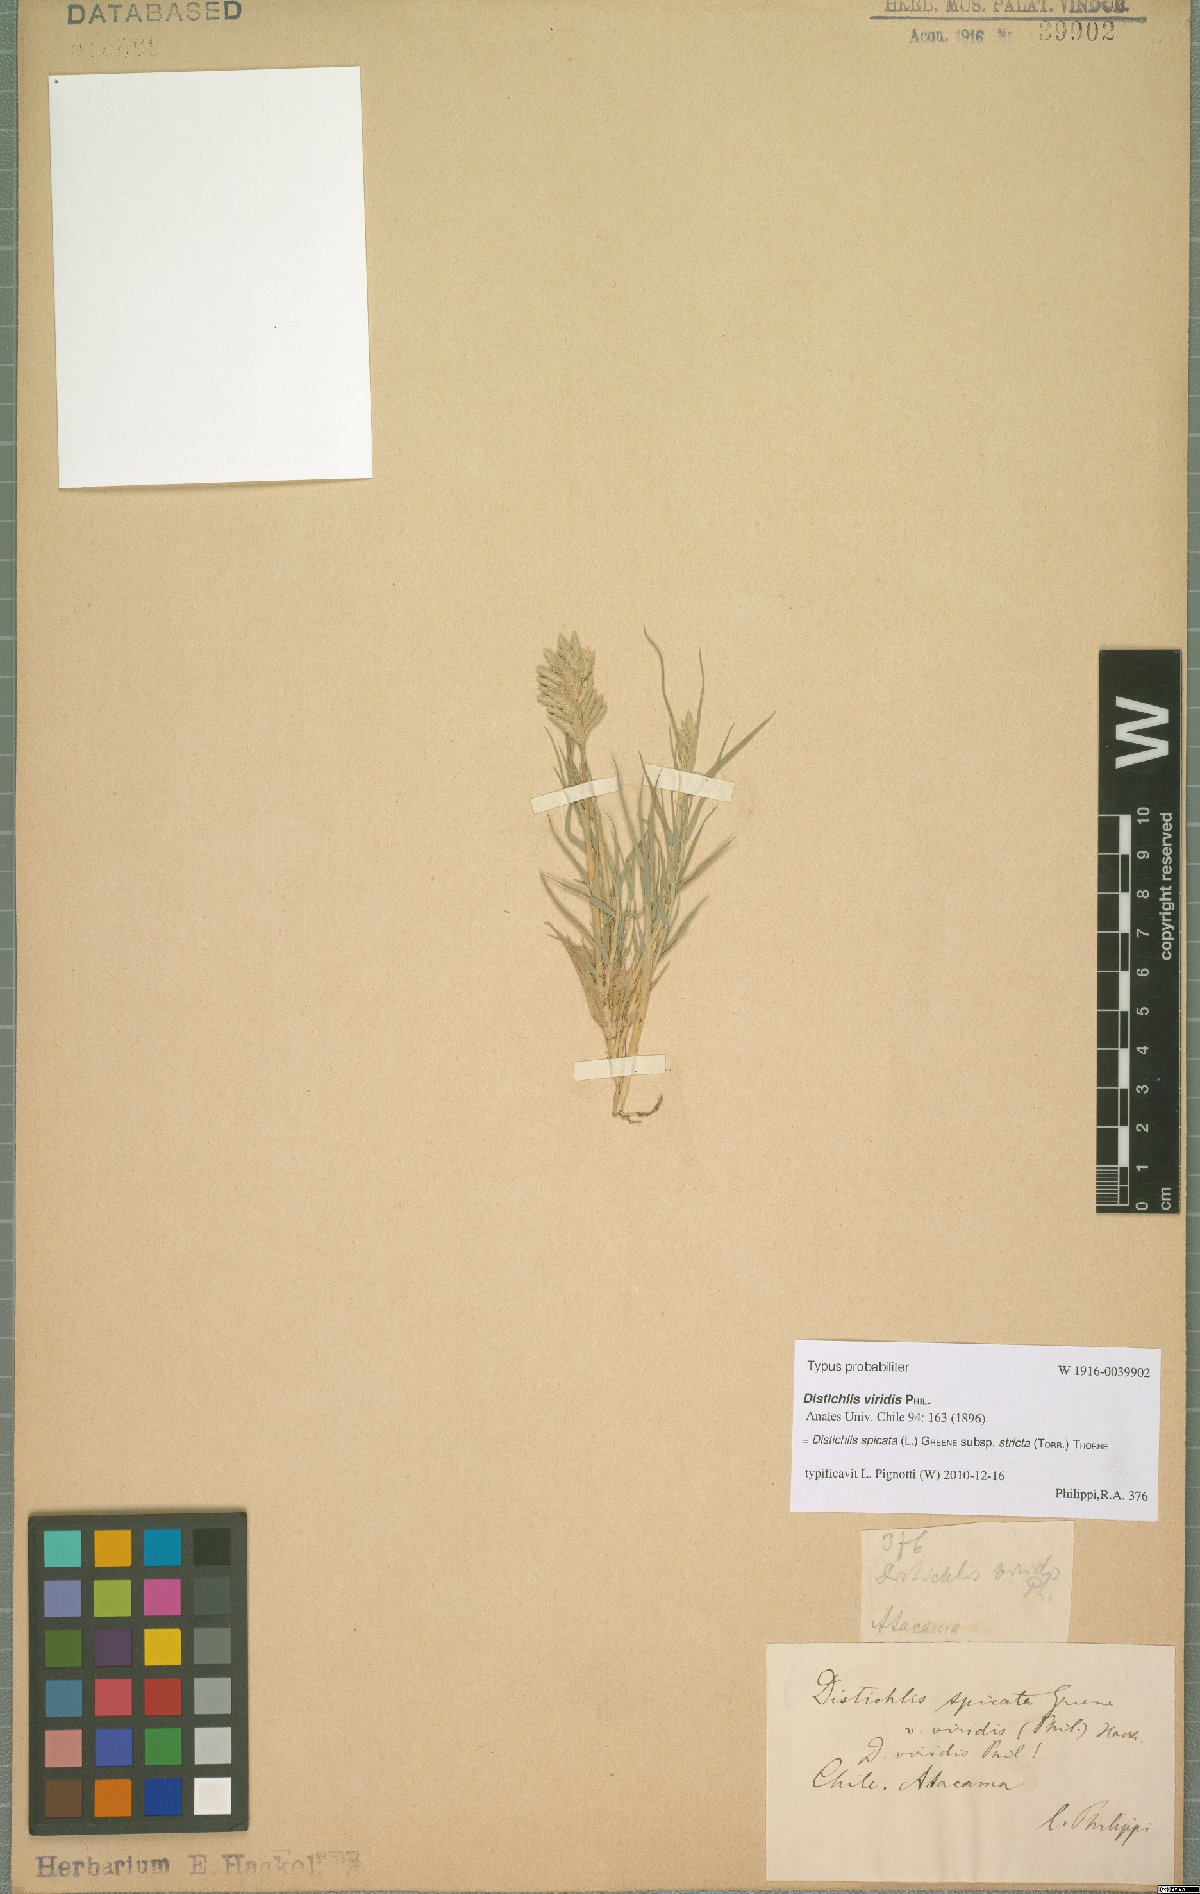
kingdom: Plantae
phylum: Tracheophyta
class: Liliopsida
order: Poales
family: Poaceae
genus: Distichlis
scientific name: Distichlis spicata
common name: Saltgrass
